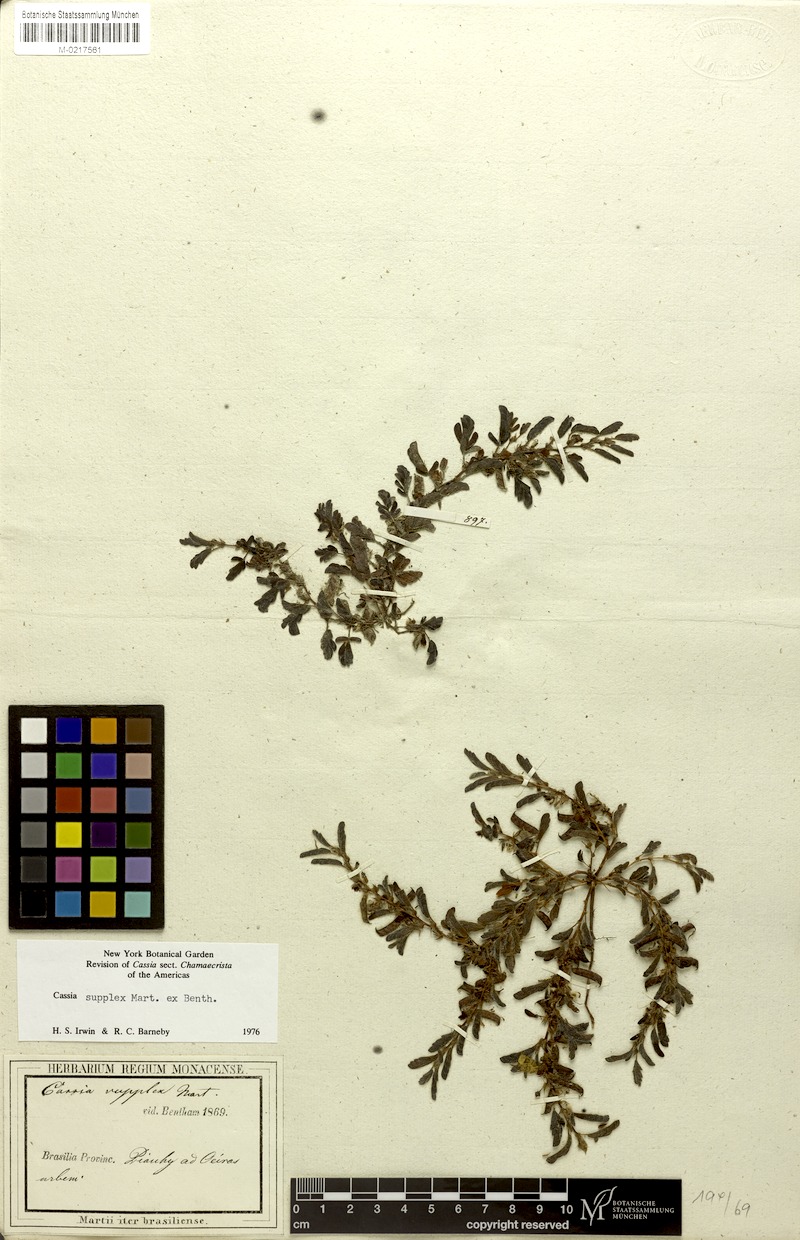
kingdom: Plantae
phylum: Tracheophyta
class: Magnoliopsida
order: Fabales
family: Fabaceae
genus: Chamaecrista
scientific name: Chamaecrista supplex
